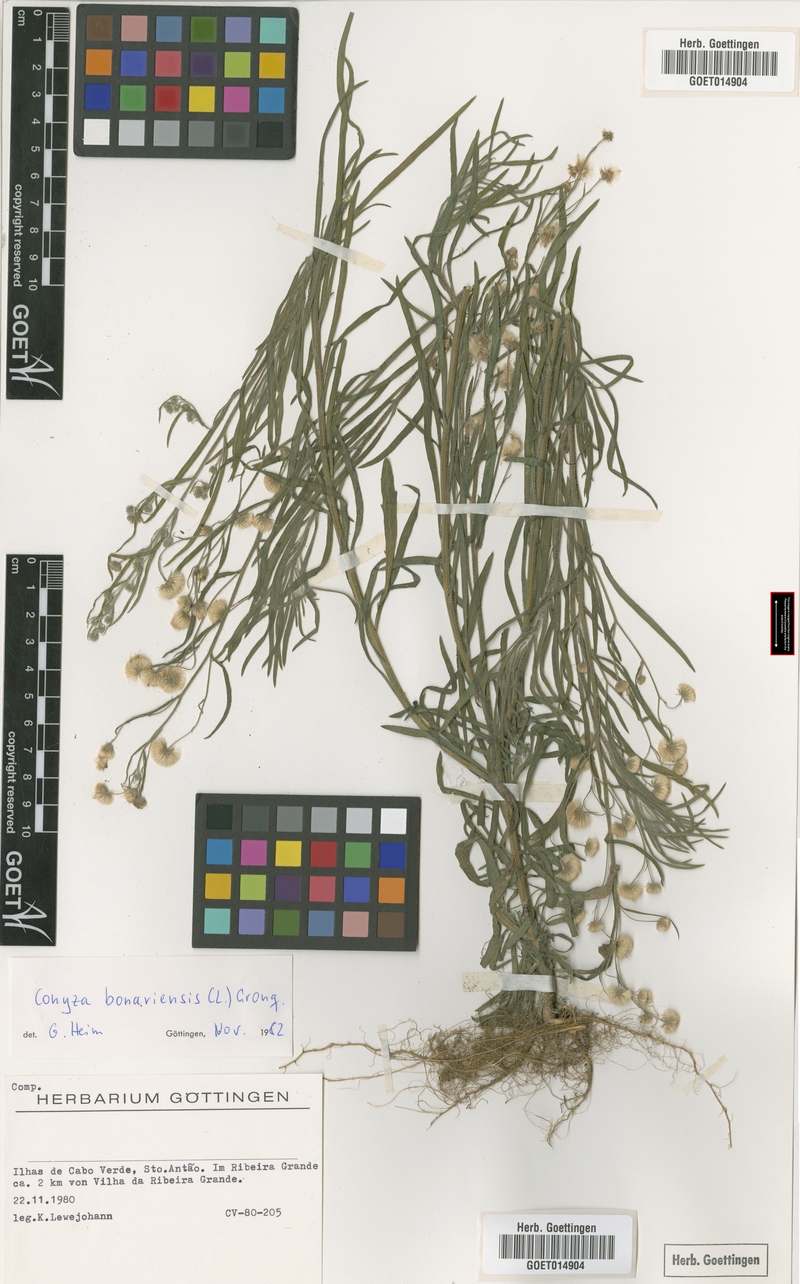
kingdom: Plantae
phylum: Tracheophyta
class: Magnoliopsida
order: Asterales
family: Asteraceae
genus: Erigeron
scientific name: Erigeron bonariensis
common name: Argentine fleabane
